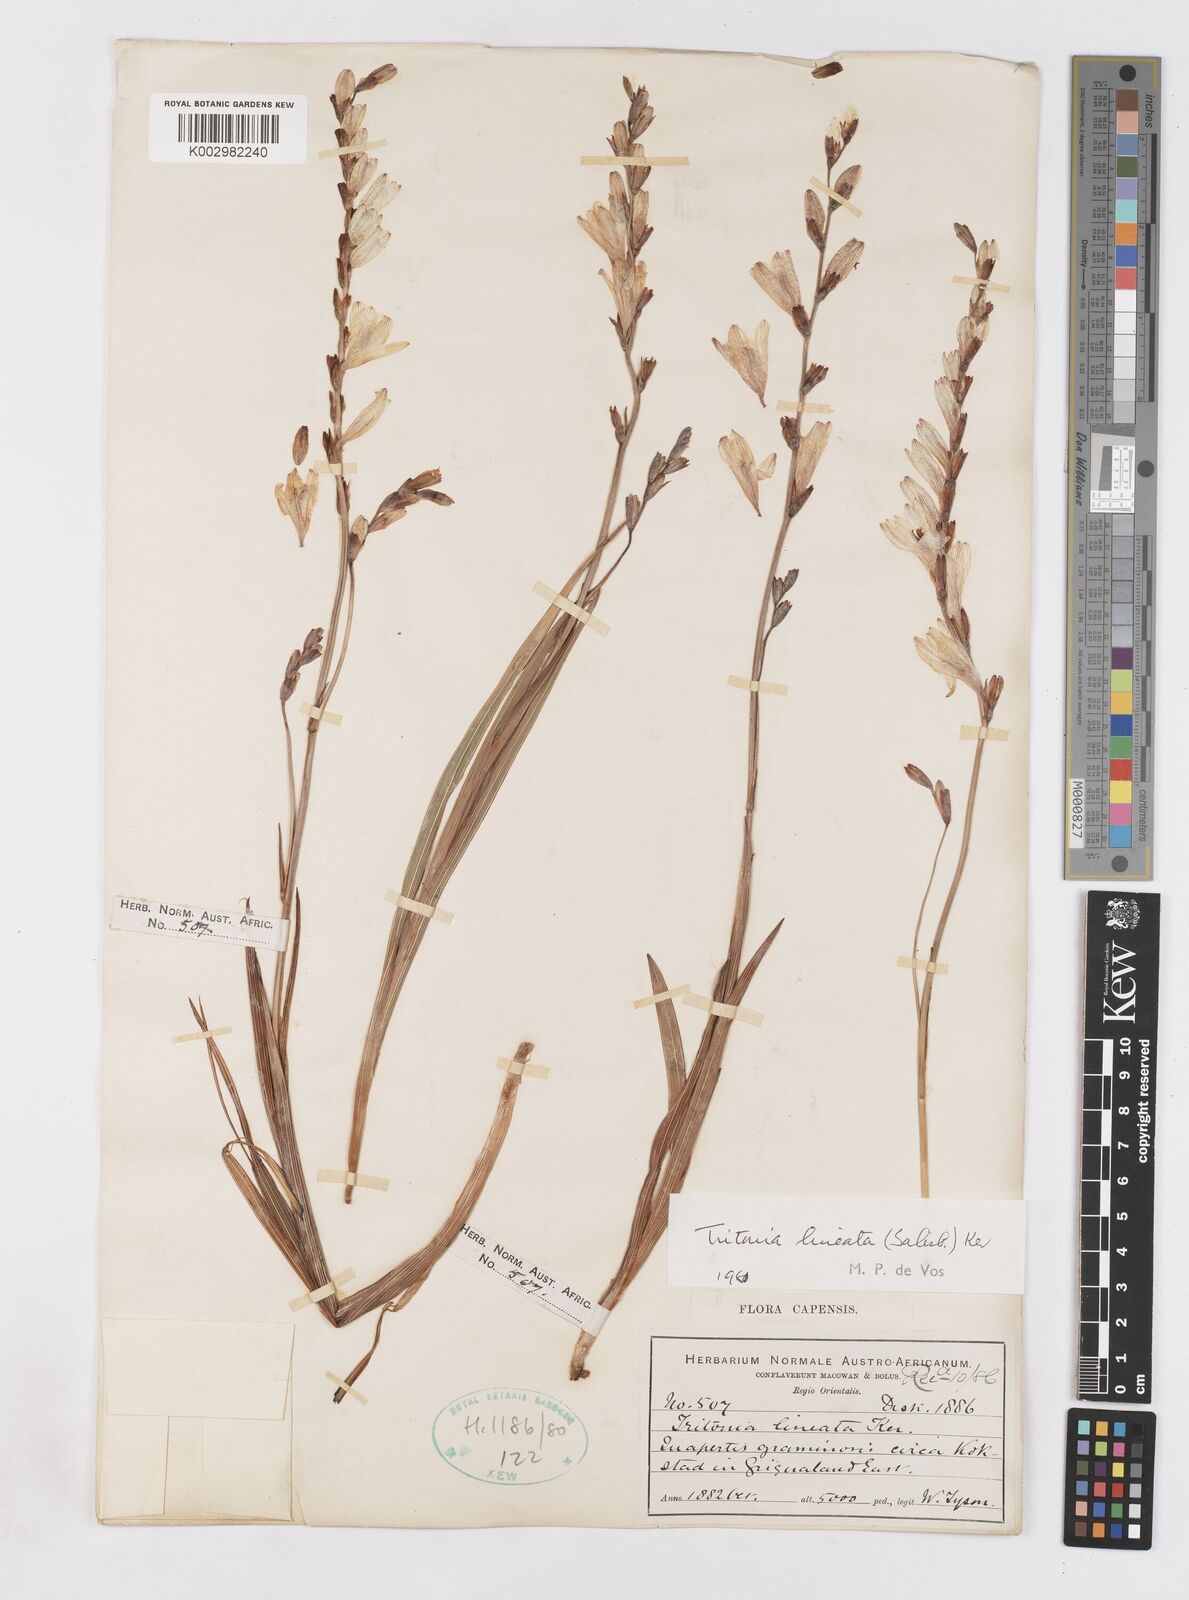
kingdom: Plantae
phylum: Tracheophyta
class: Liliopsida
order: Asparagales
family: Iridaceae
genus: Tritonia
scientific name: Tritonia gladiolaris
